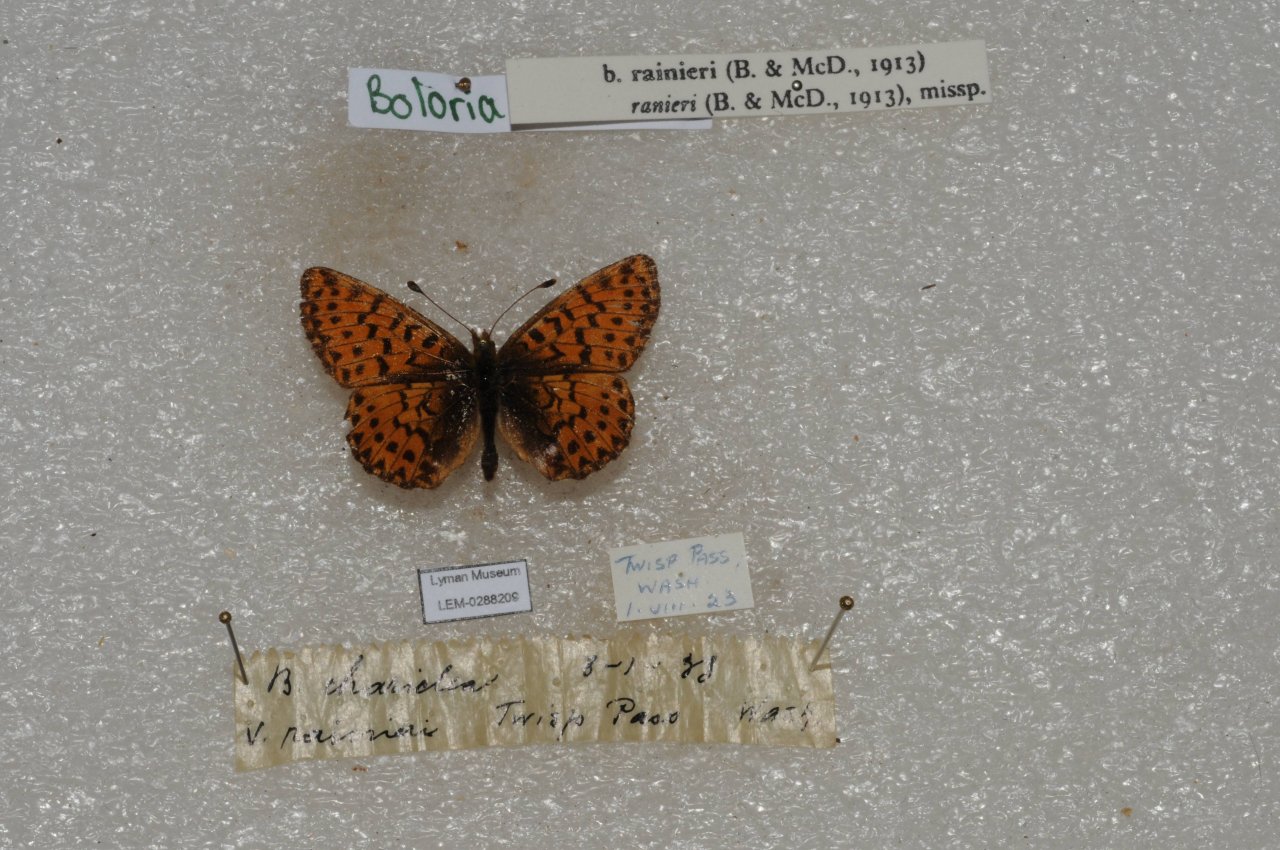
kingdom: Animalia
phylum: Arthropoda
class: Insecta
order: Lepidoptera
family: Nymphalidae
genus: Boloria
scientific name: Boloria chariclea
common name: Arctic Fritillary
